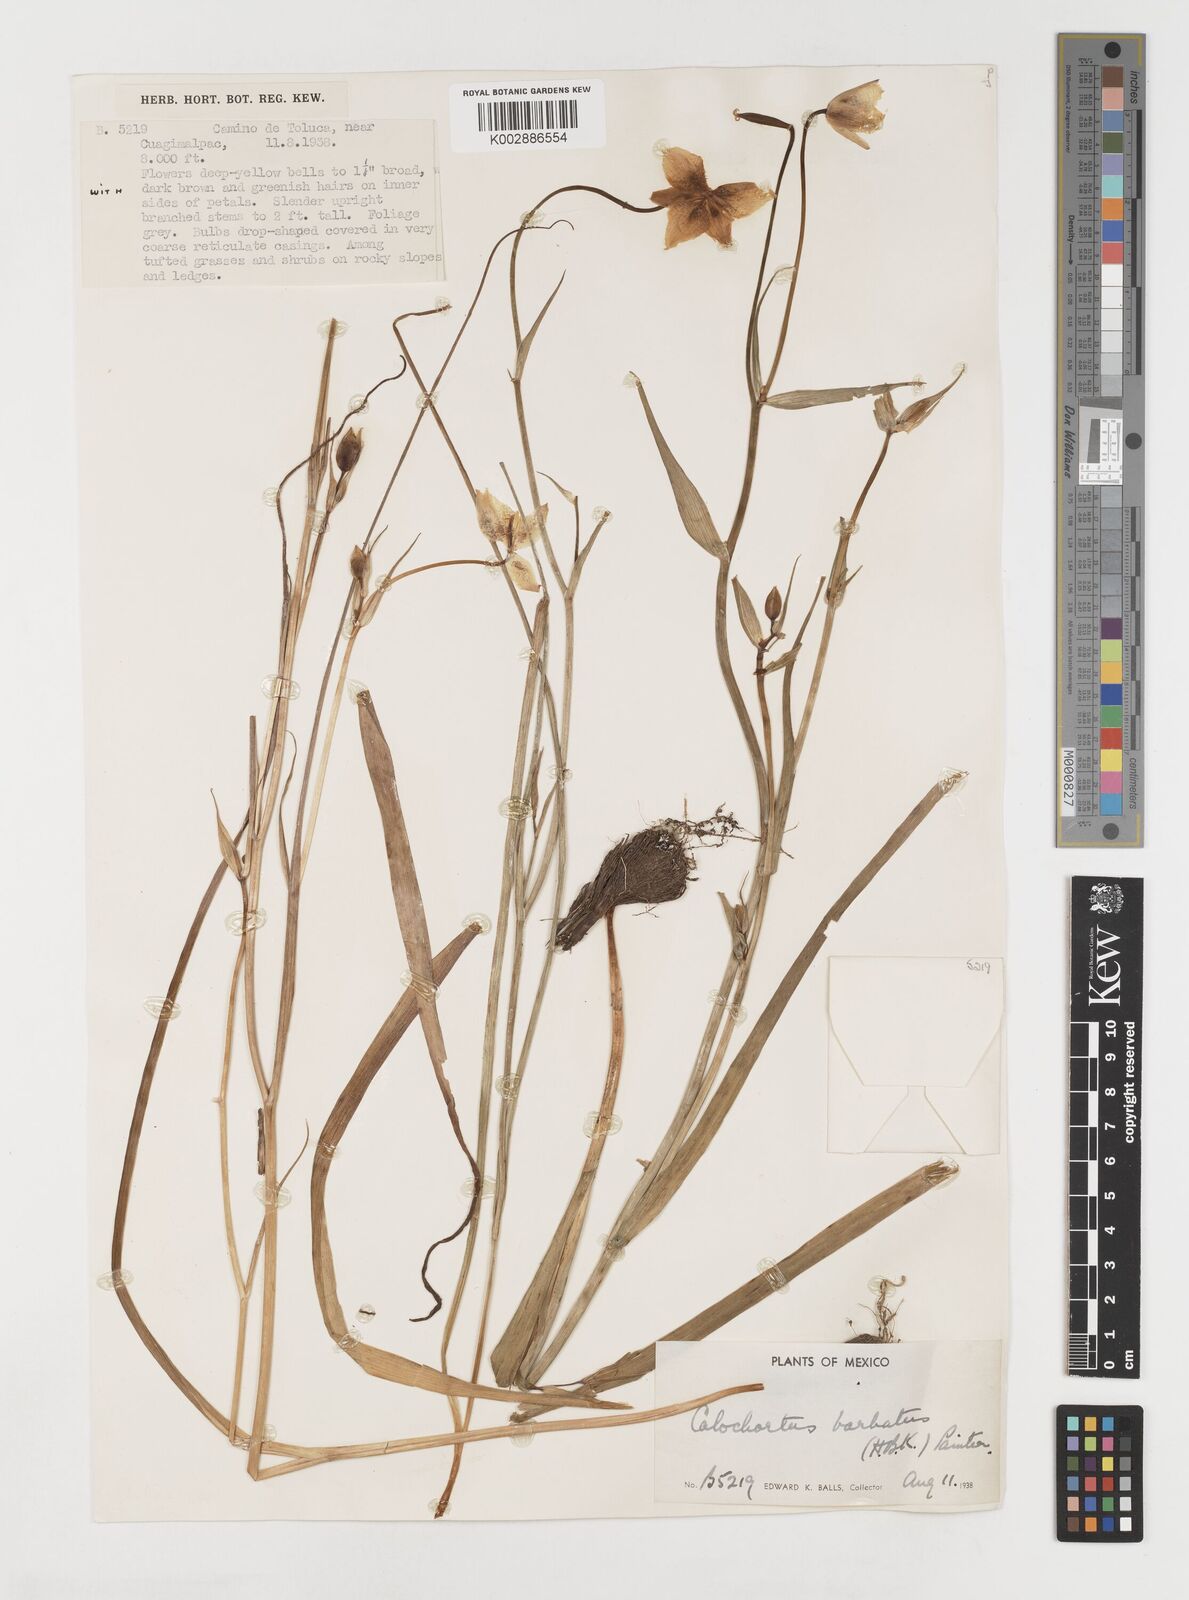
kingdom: Plantae
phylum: Tracheophyta
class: Liliopsida
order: Liliales
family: Liliaceae
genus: Calochortus
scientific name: Calochortus barbatus
